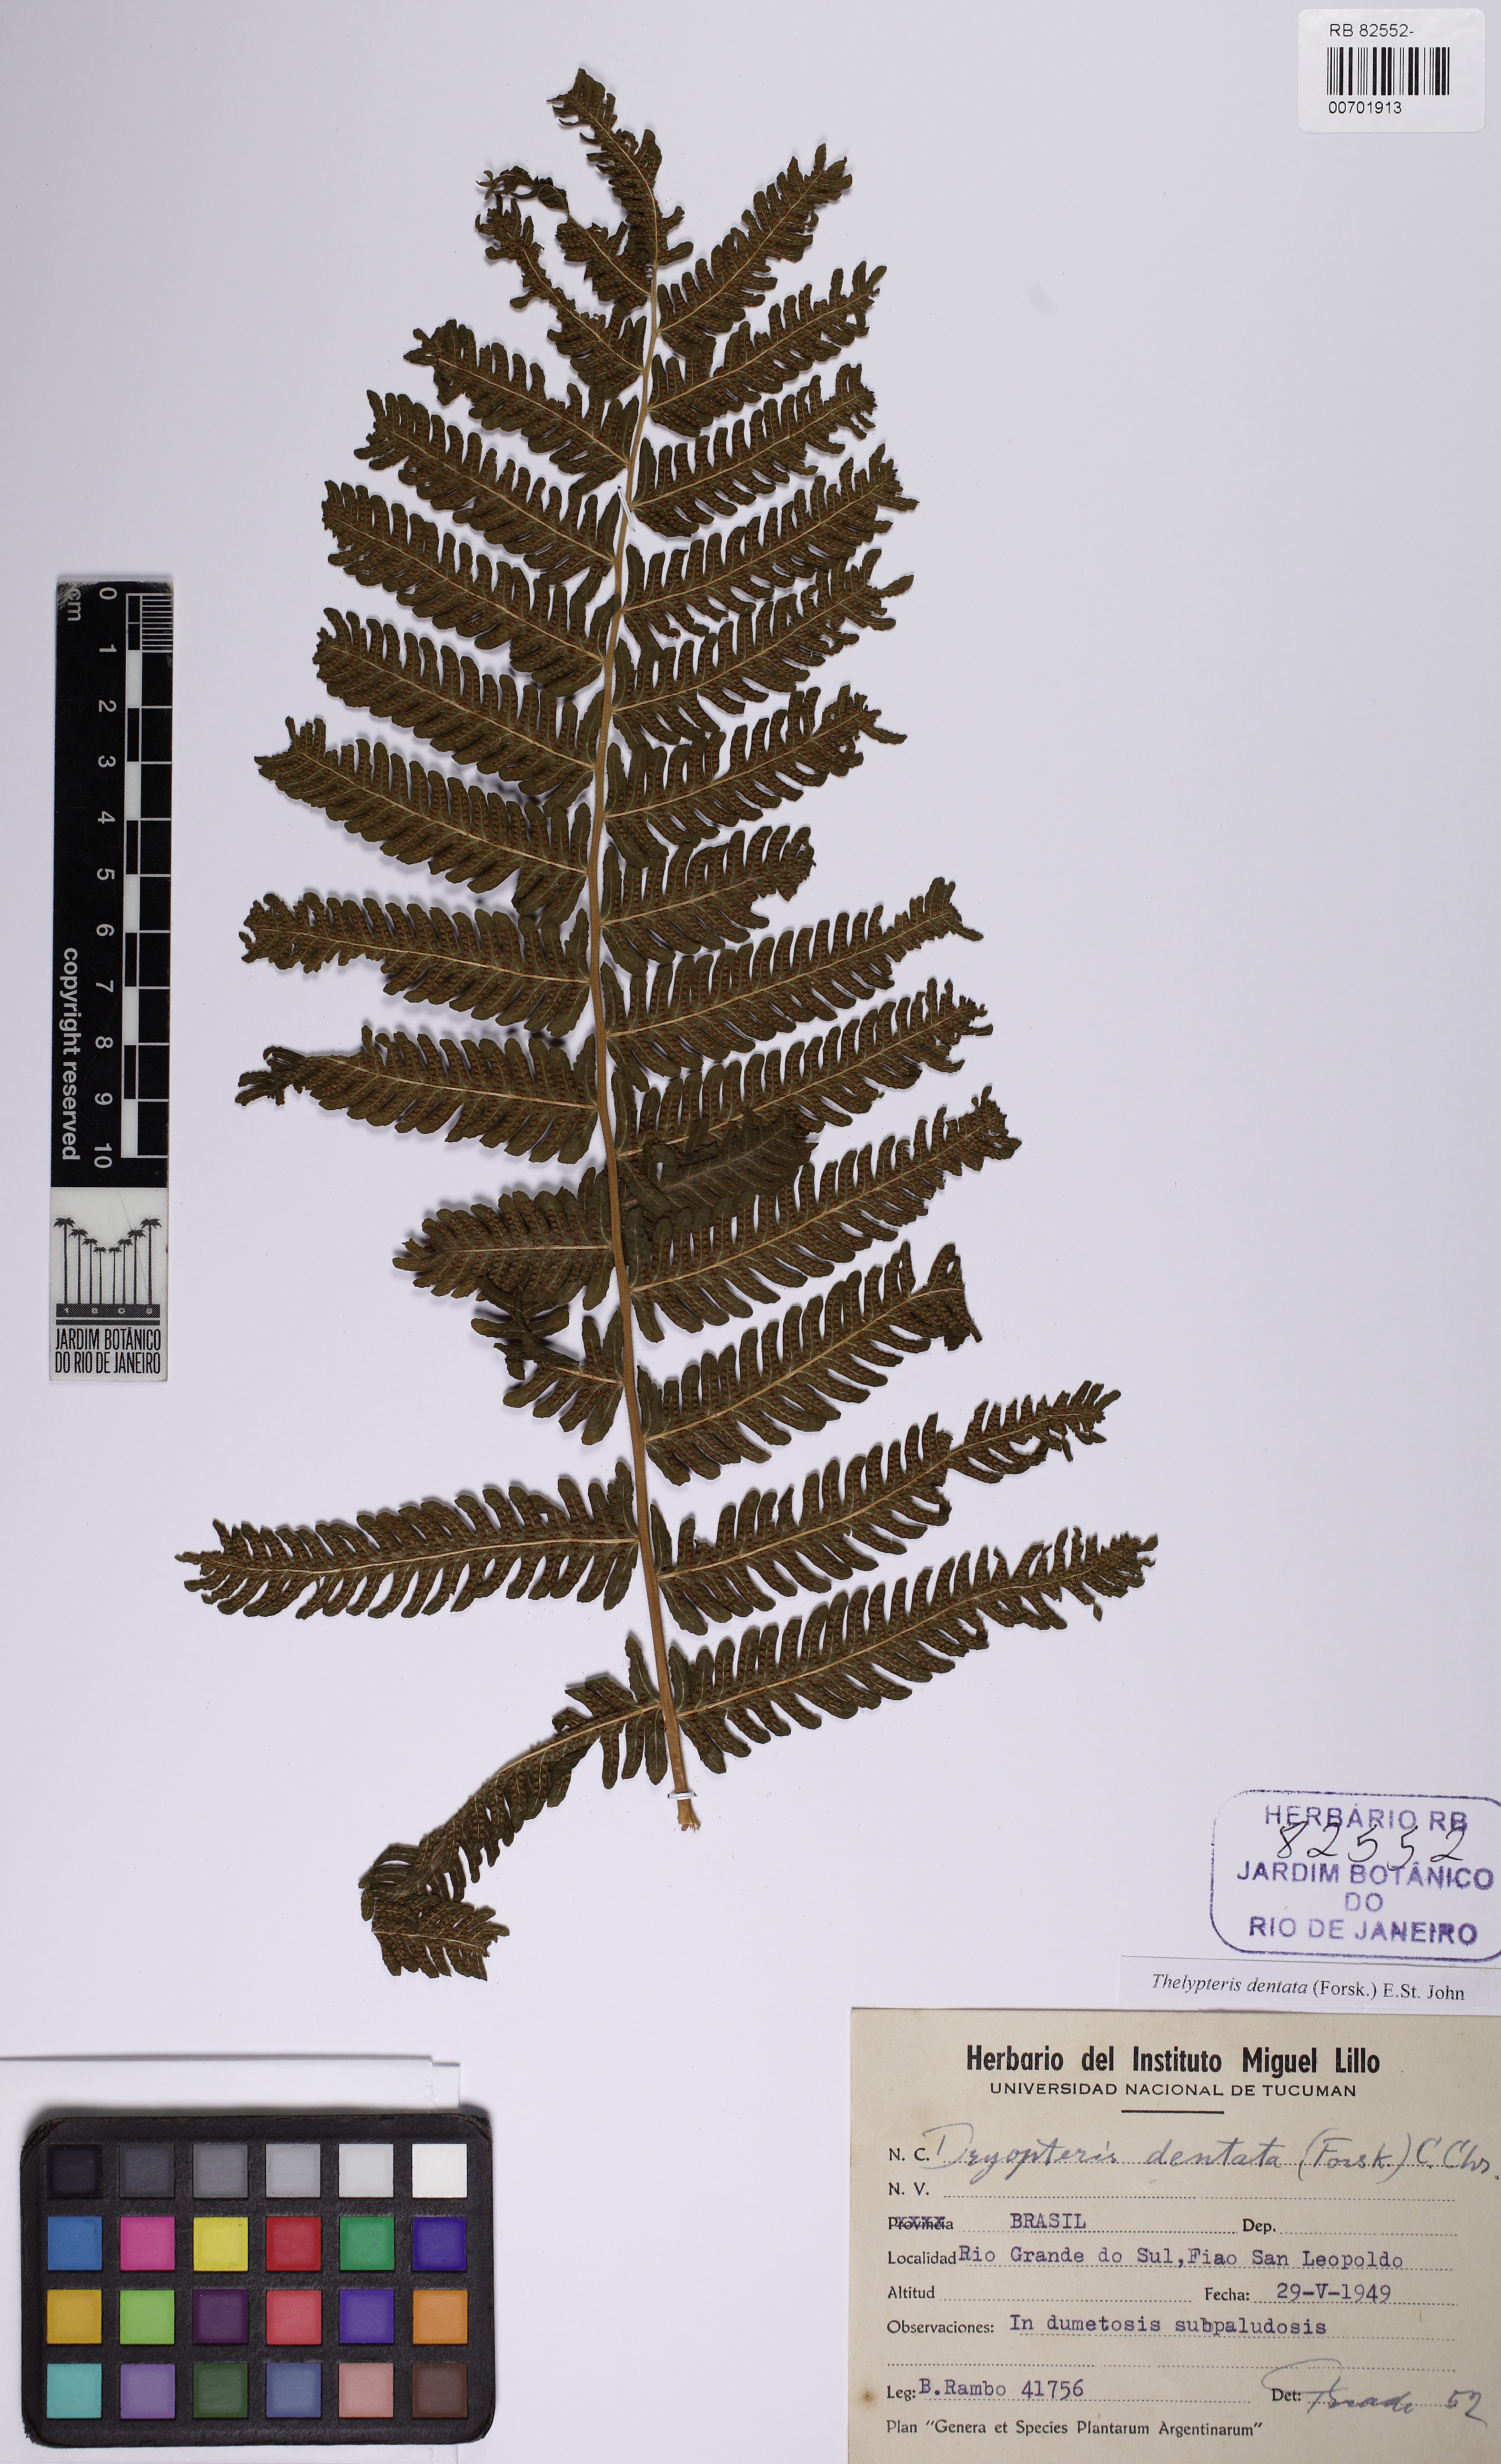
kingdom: Plantae
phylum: Tracheophyta
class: Polypodiopsida
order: Polypodiales
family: Thelypteridaceae
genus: Christella
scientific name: Christella dentata
